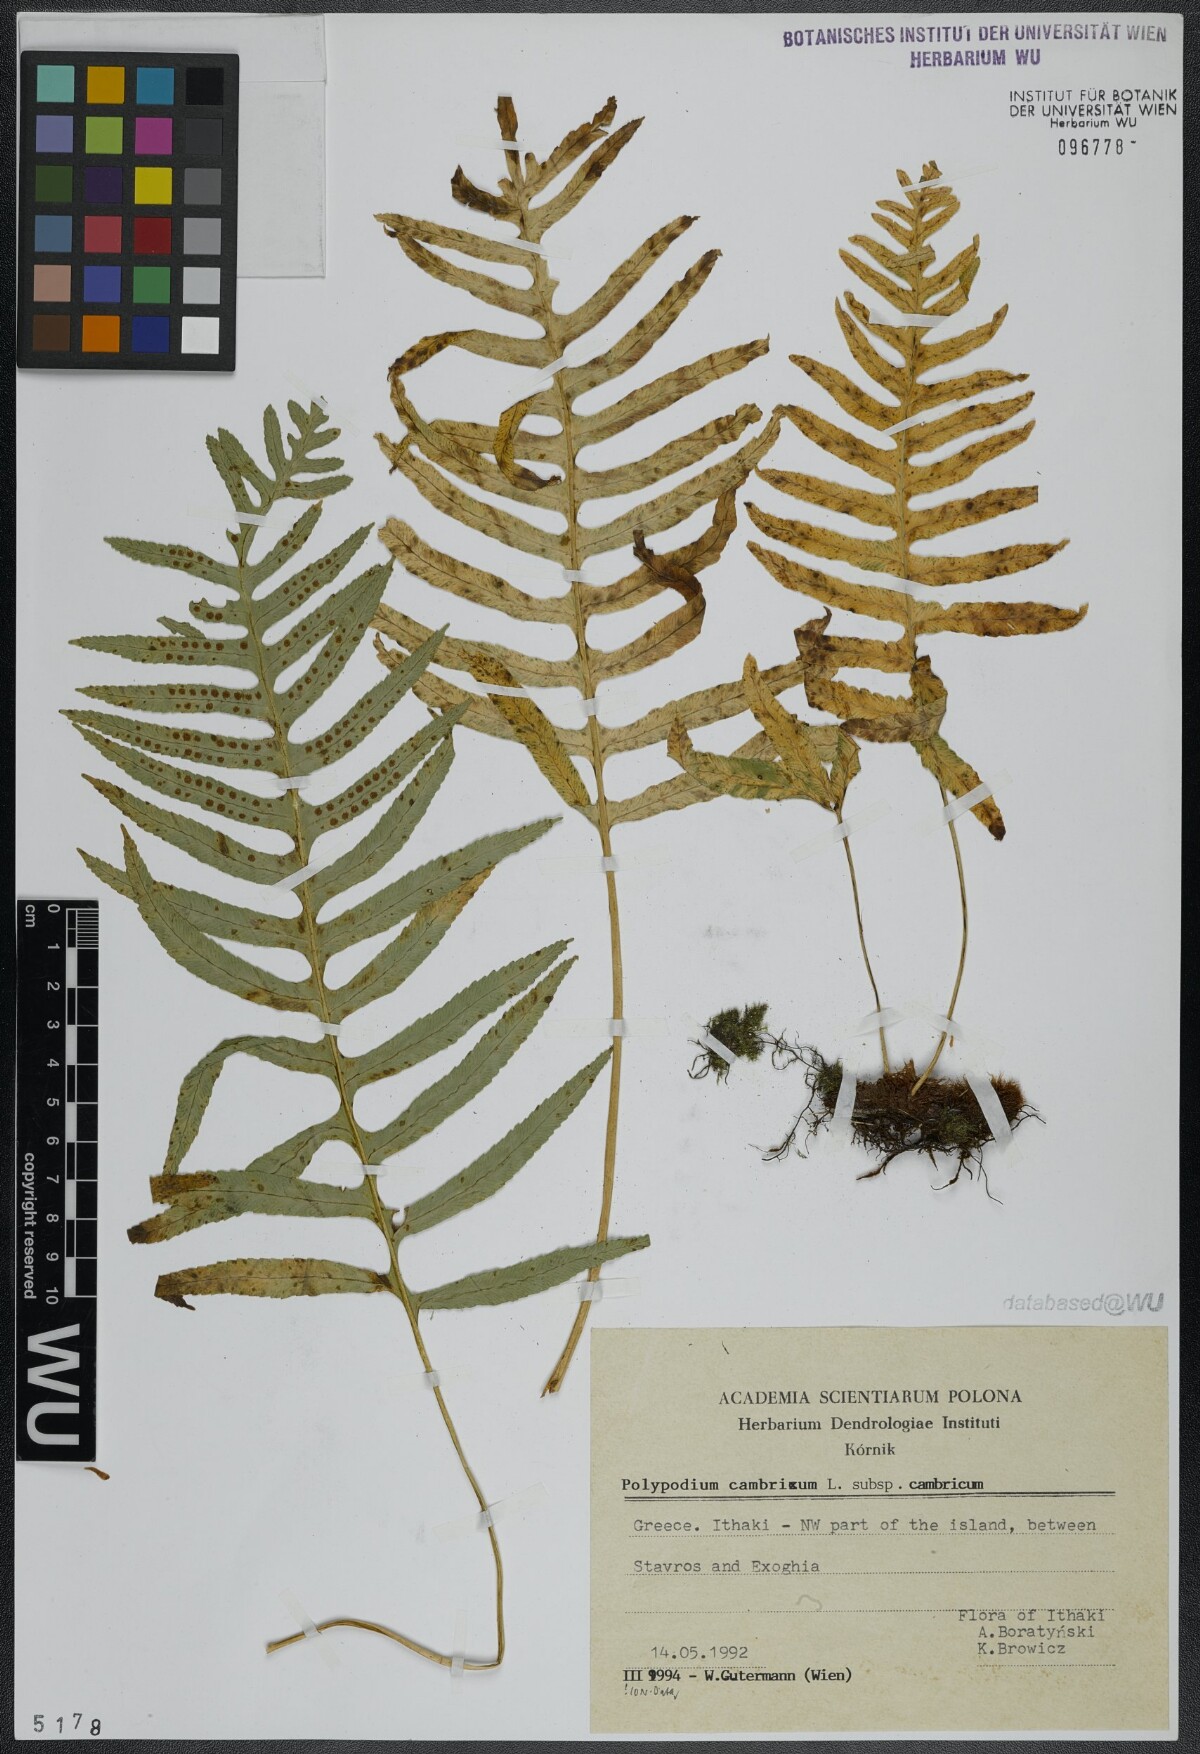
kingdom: Plantae
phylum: Tracheophyta
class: Polypodiopsida
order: Polypodiales
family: Polypodiaceae
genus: Polypodium
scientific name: Polypodium cambricum
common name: Southern polypody
